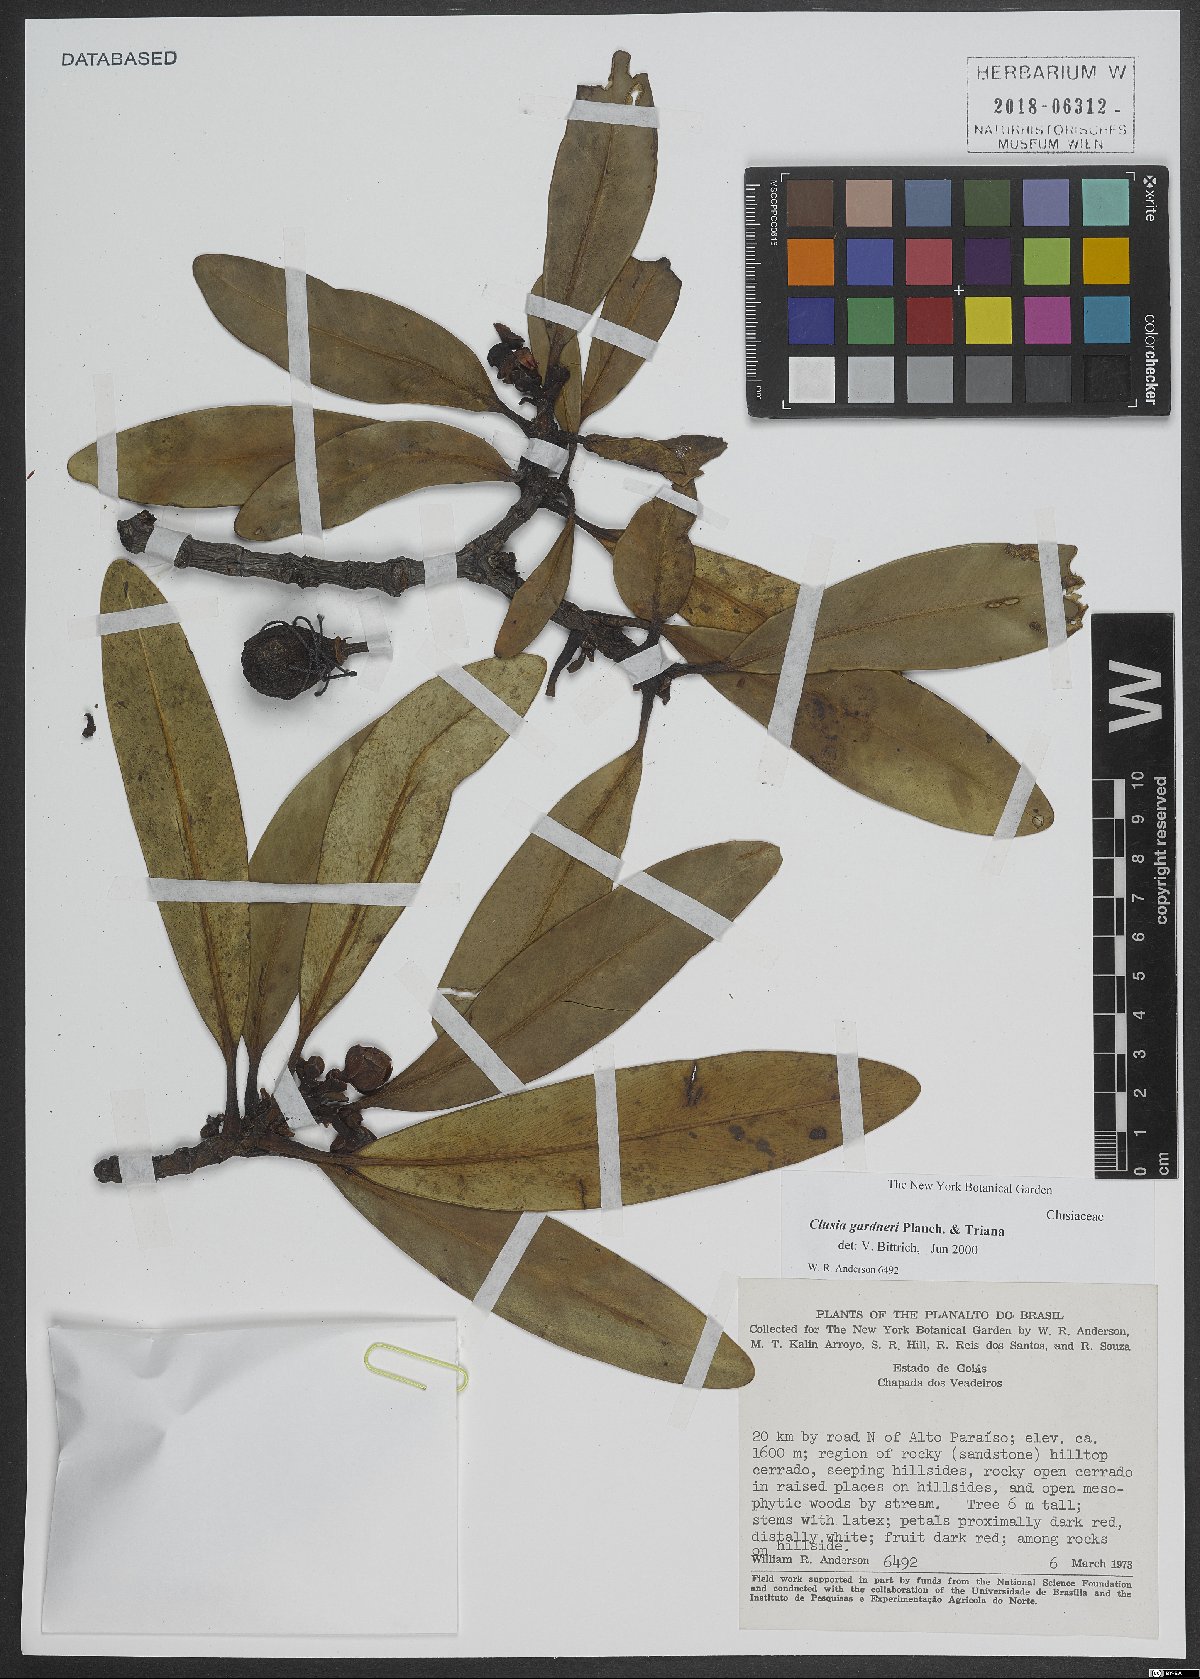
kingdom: Plantae
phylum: Tracheophyta
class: Magnoliopsida
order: Malpighiales
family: Clusiaceae
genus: Clusia
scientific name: Clusia gardneri
